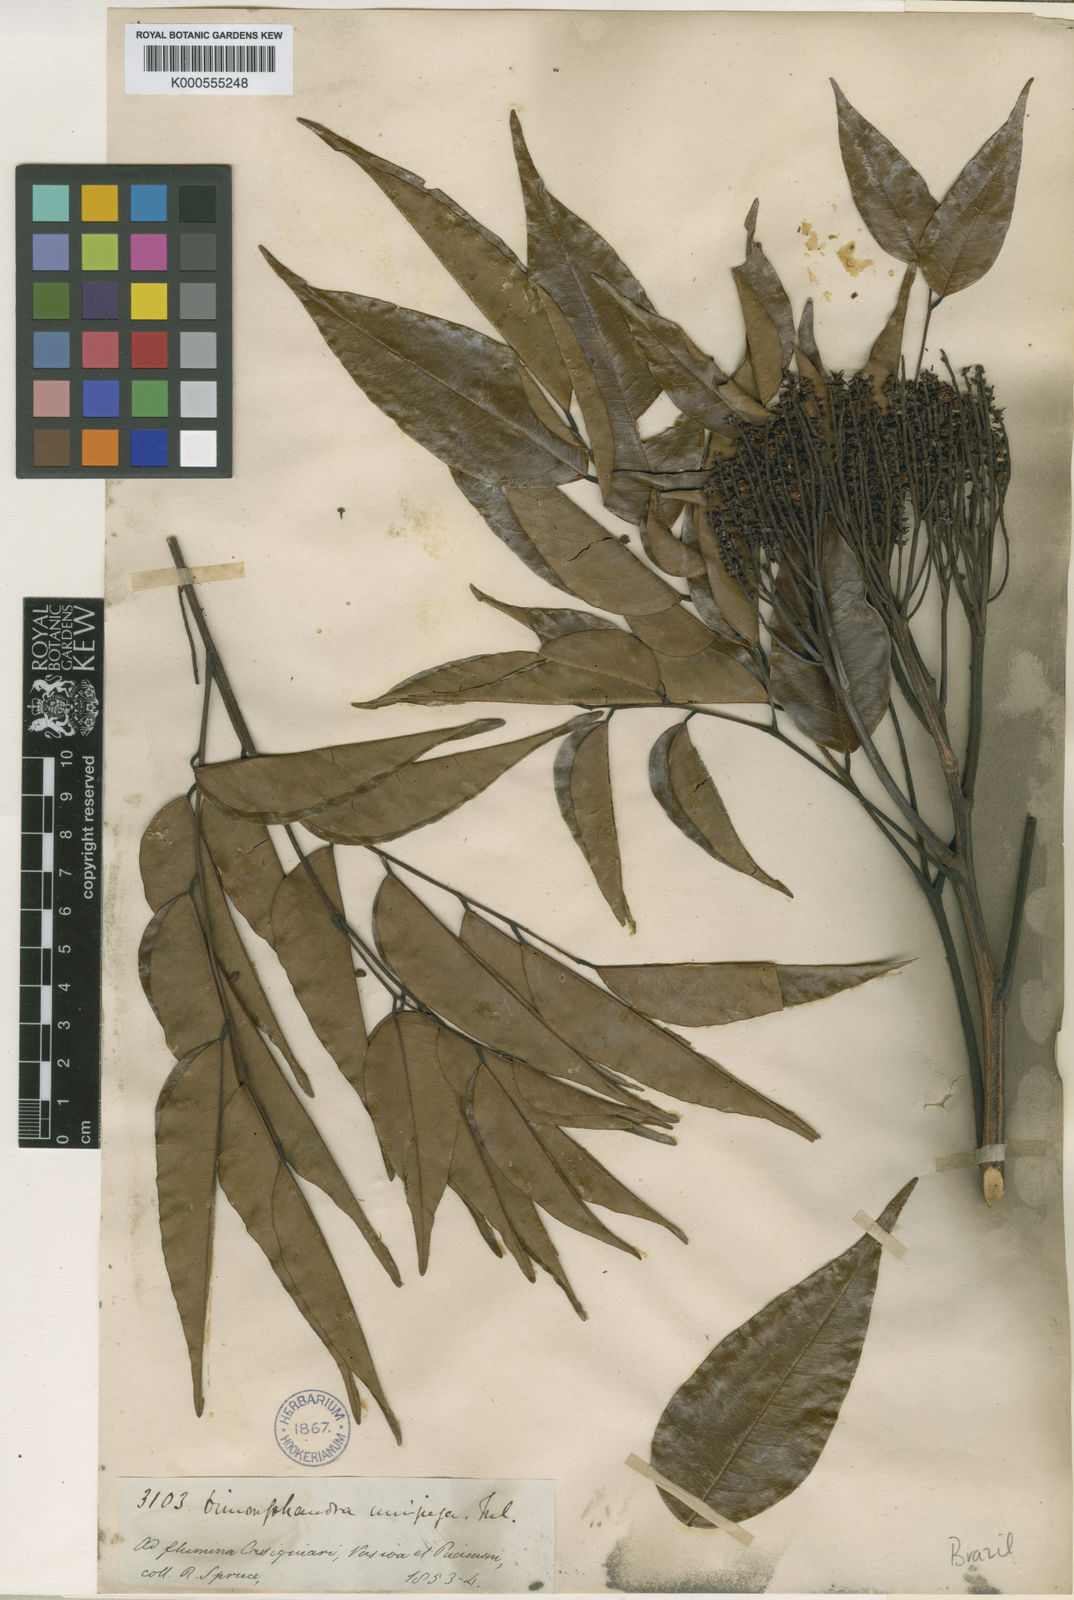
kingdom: Plantae
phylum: Tracheophyta
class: Magnoliopsida
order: Fabales
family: Fabaceae
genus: Dimorphandra
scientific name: Dimorphandra unijuga
